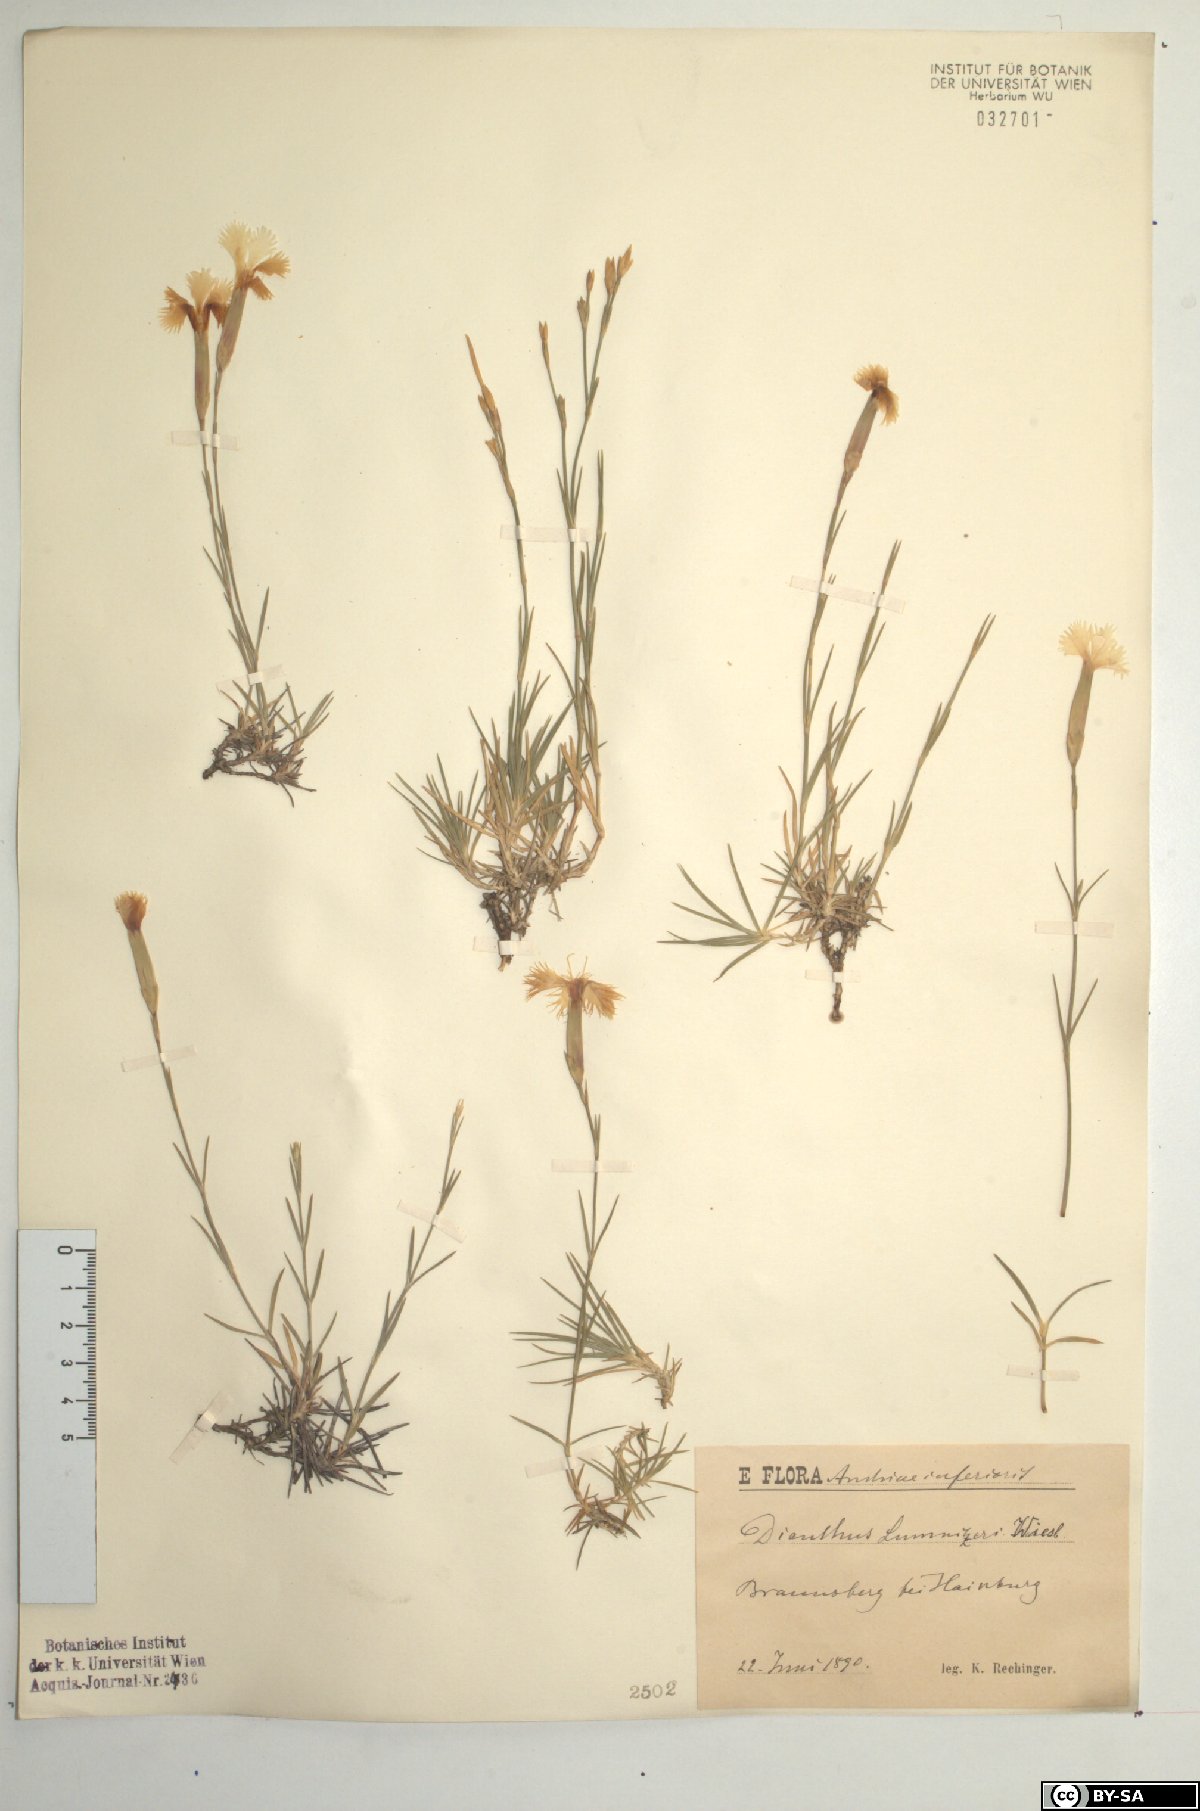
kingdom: Plantae
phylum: Tracheophyta
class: Magnoliopsida
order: Caryophyllales
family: Caryophyllaceae
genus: Dianthus
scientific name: Dianthus praecox
